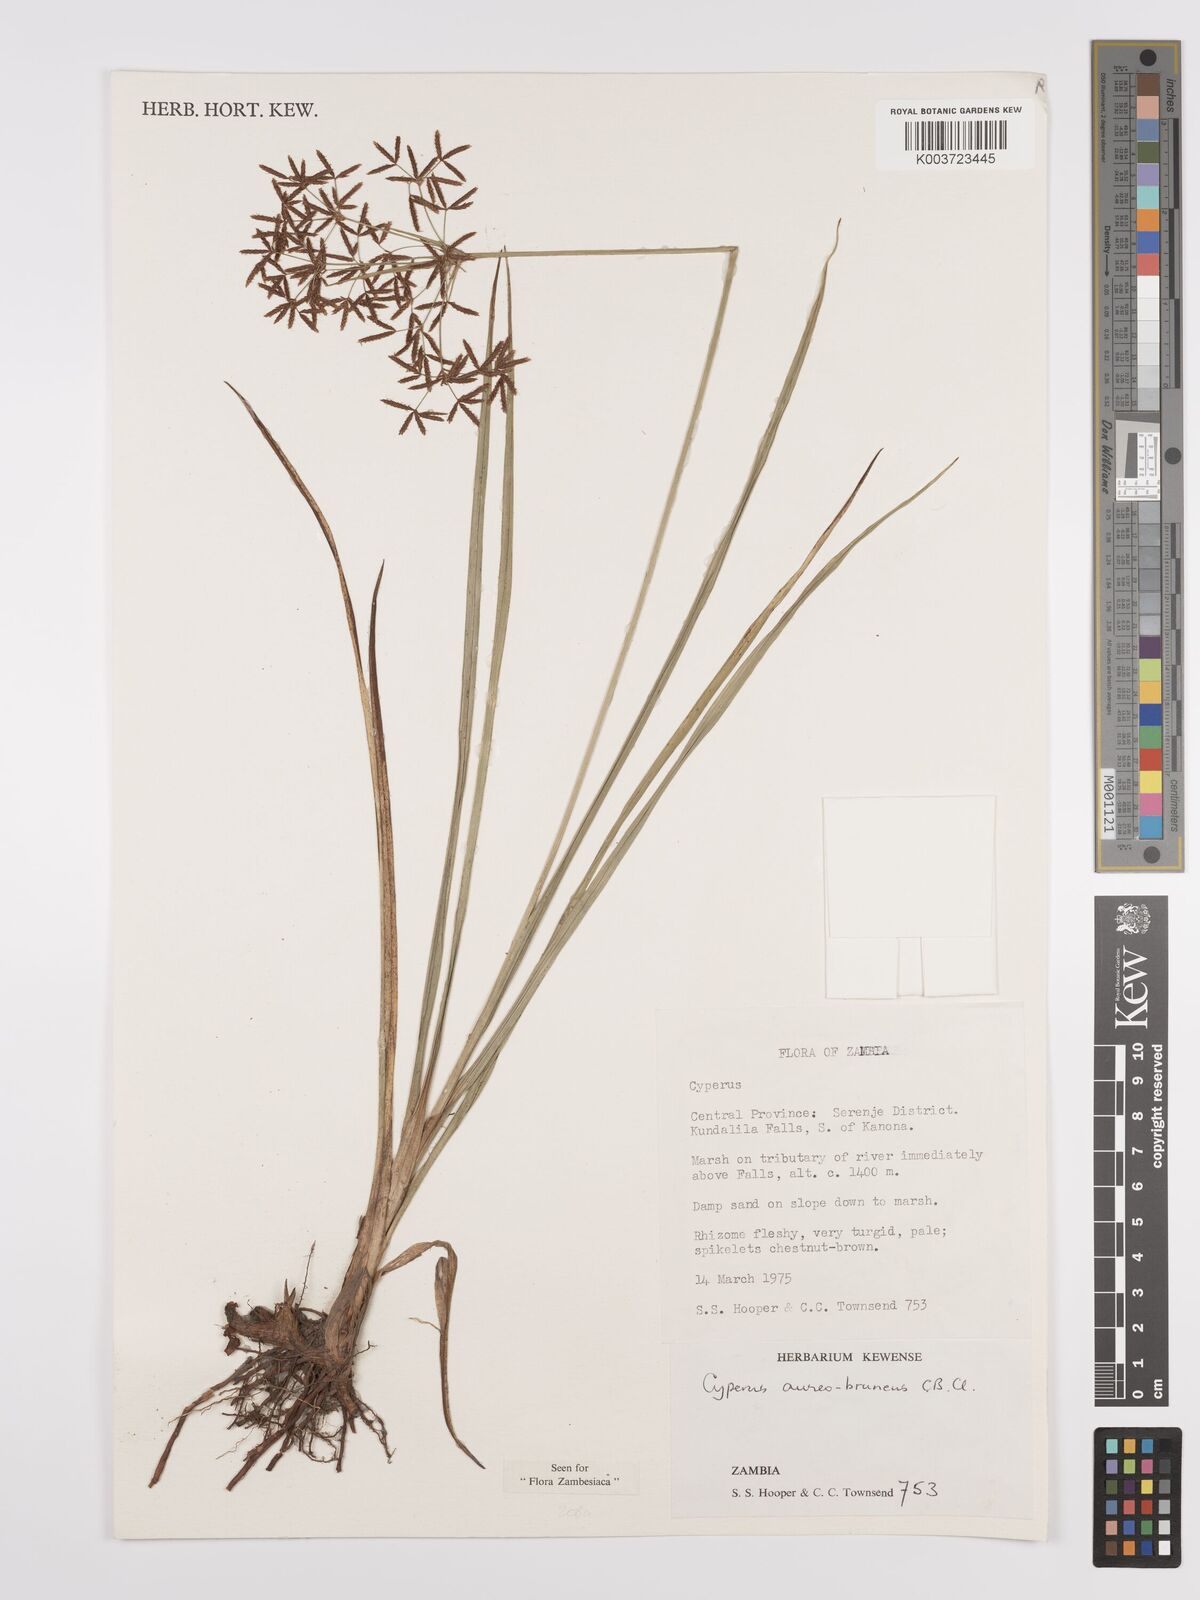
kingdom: Plantae
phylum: Tracheophyta
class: Liliopsida
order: Poales
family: Cyperaceae
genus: Cyperus
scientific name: Cyperus aureobrunneus
